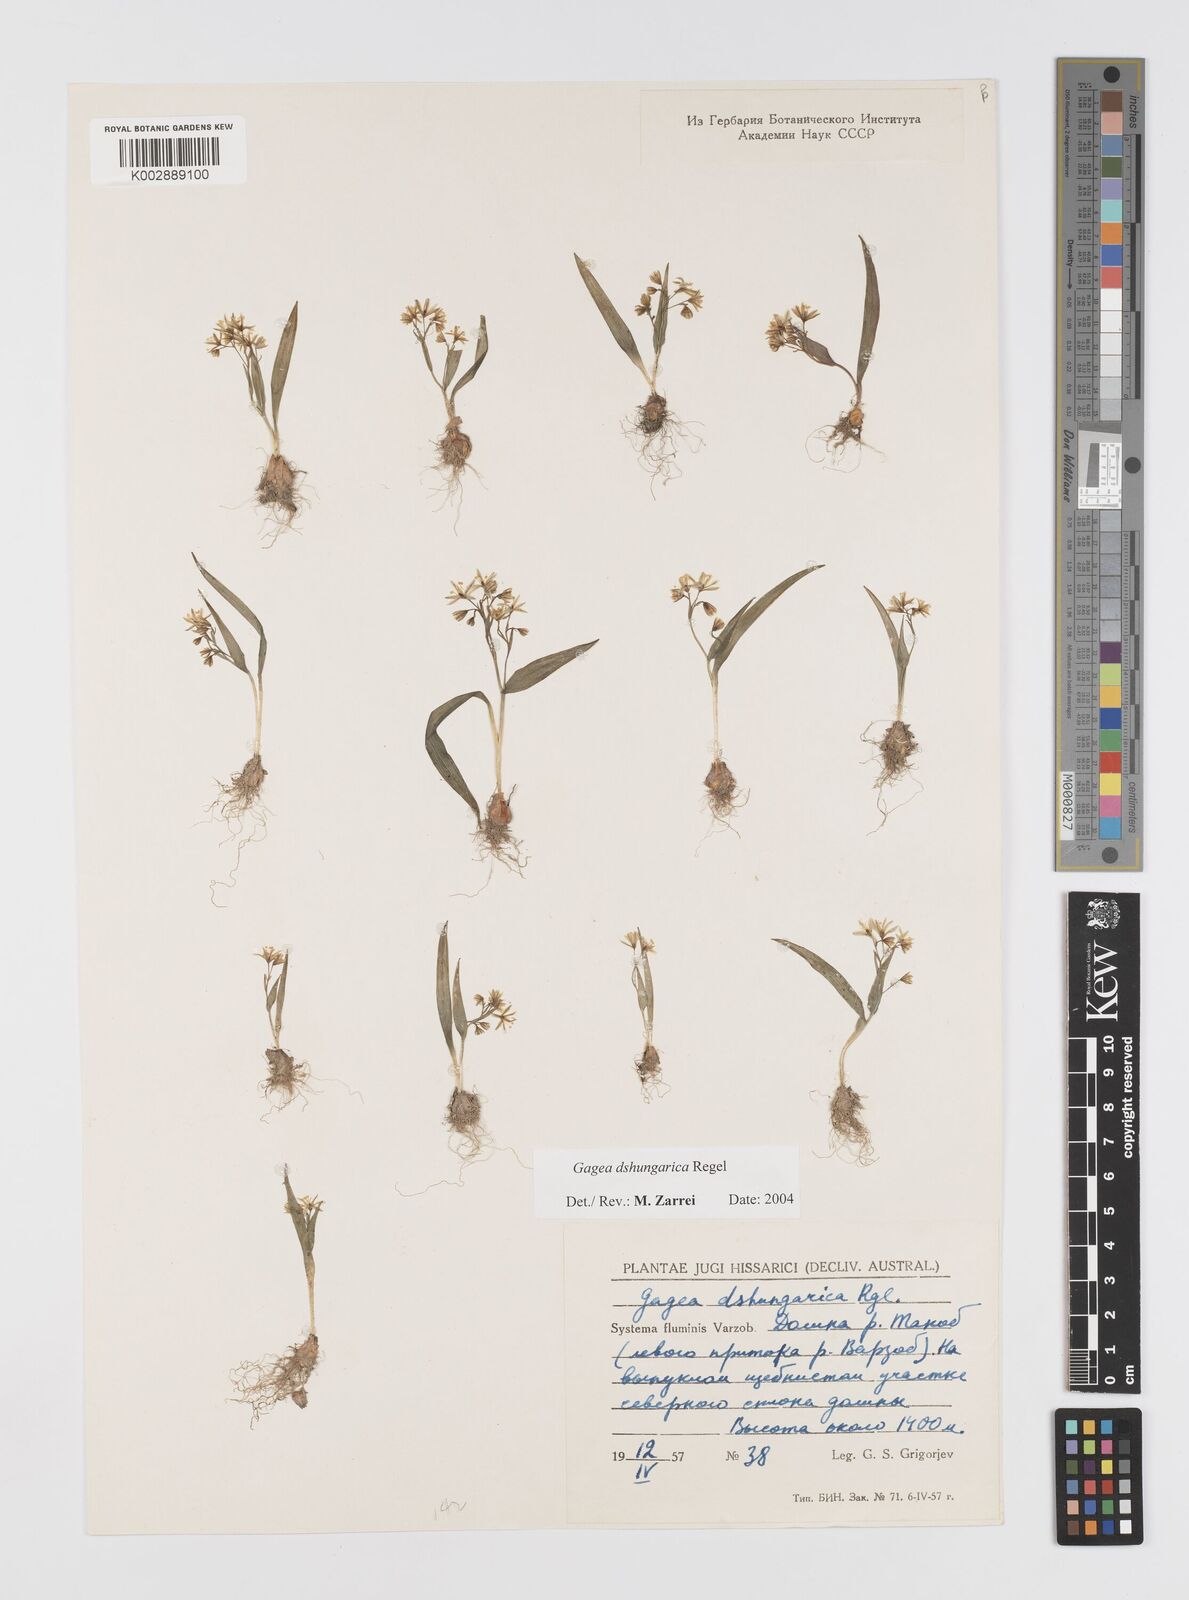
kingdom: Plantae
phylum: Tracheophyta
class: Liliopsida
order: Liliales
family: Liliaceae
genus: Gagea
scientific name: Gagea dschungarica
